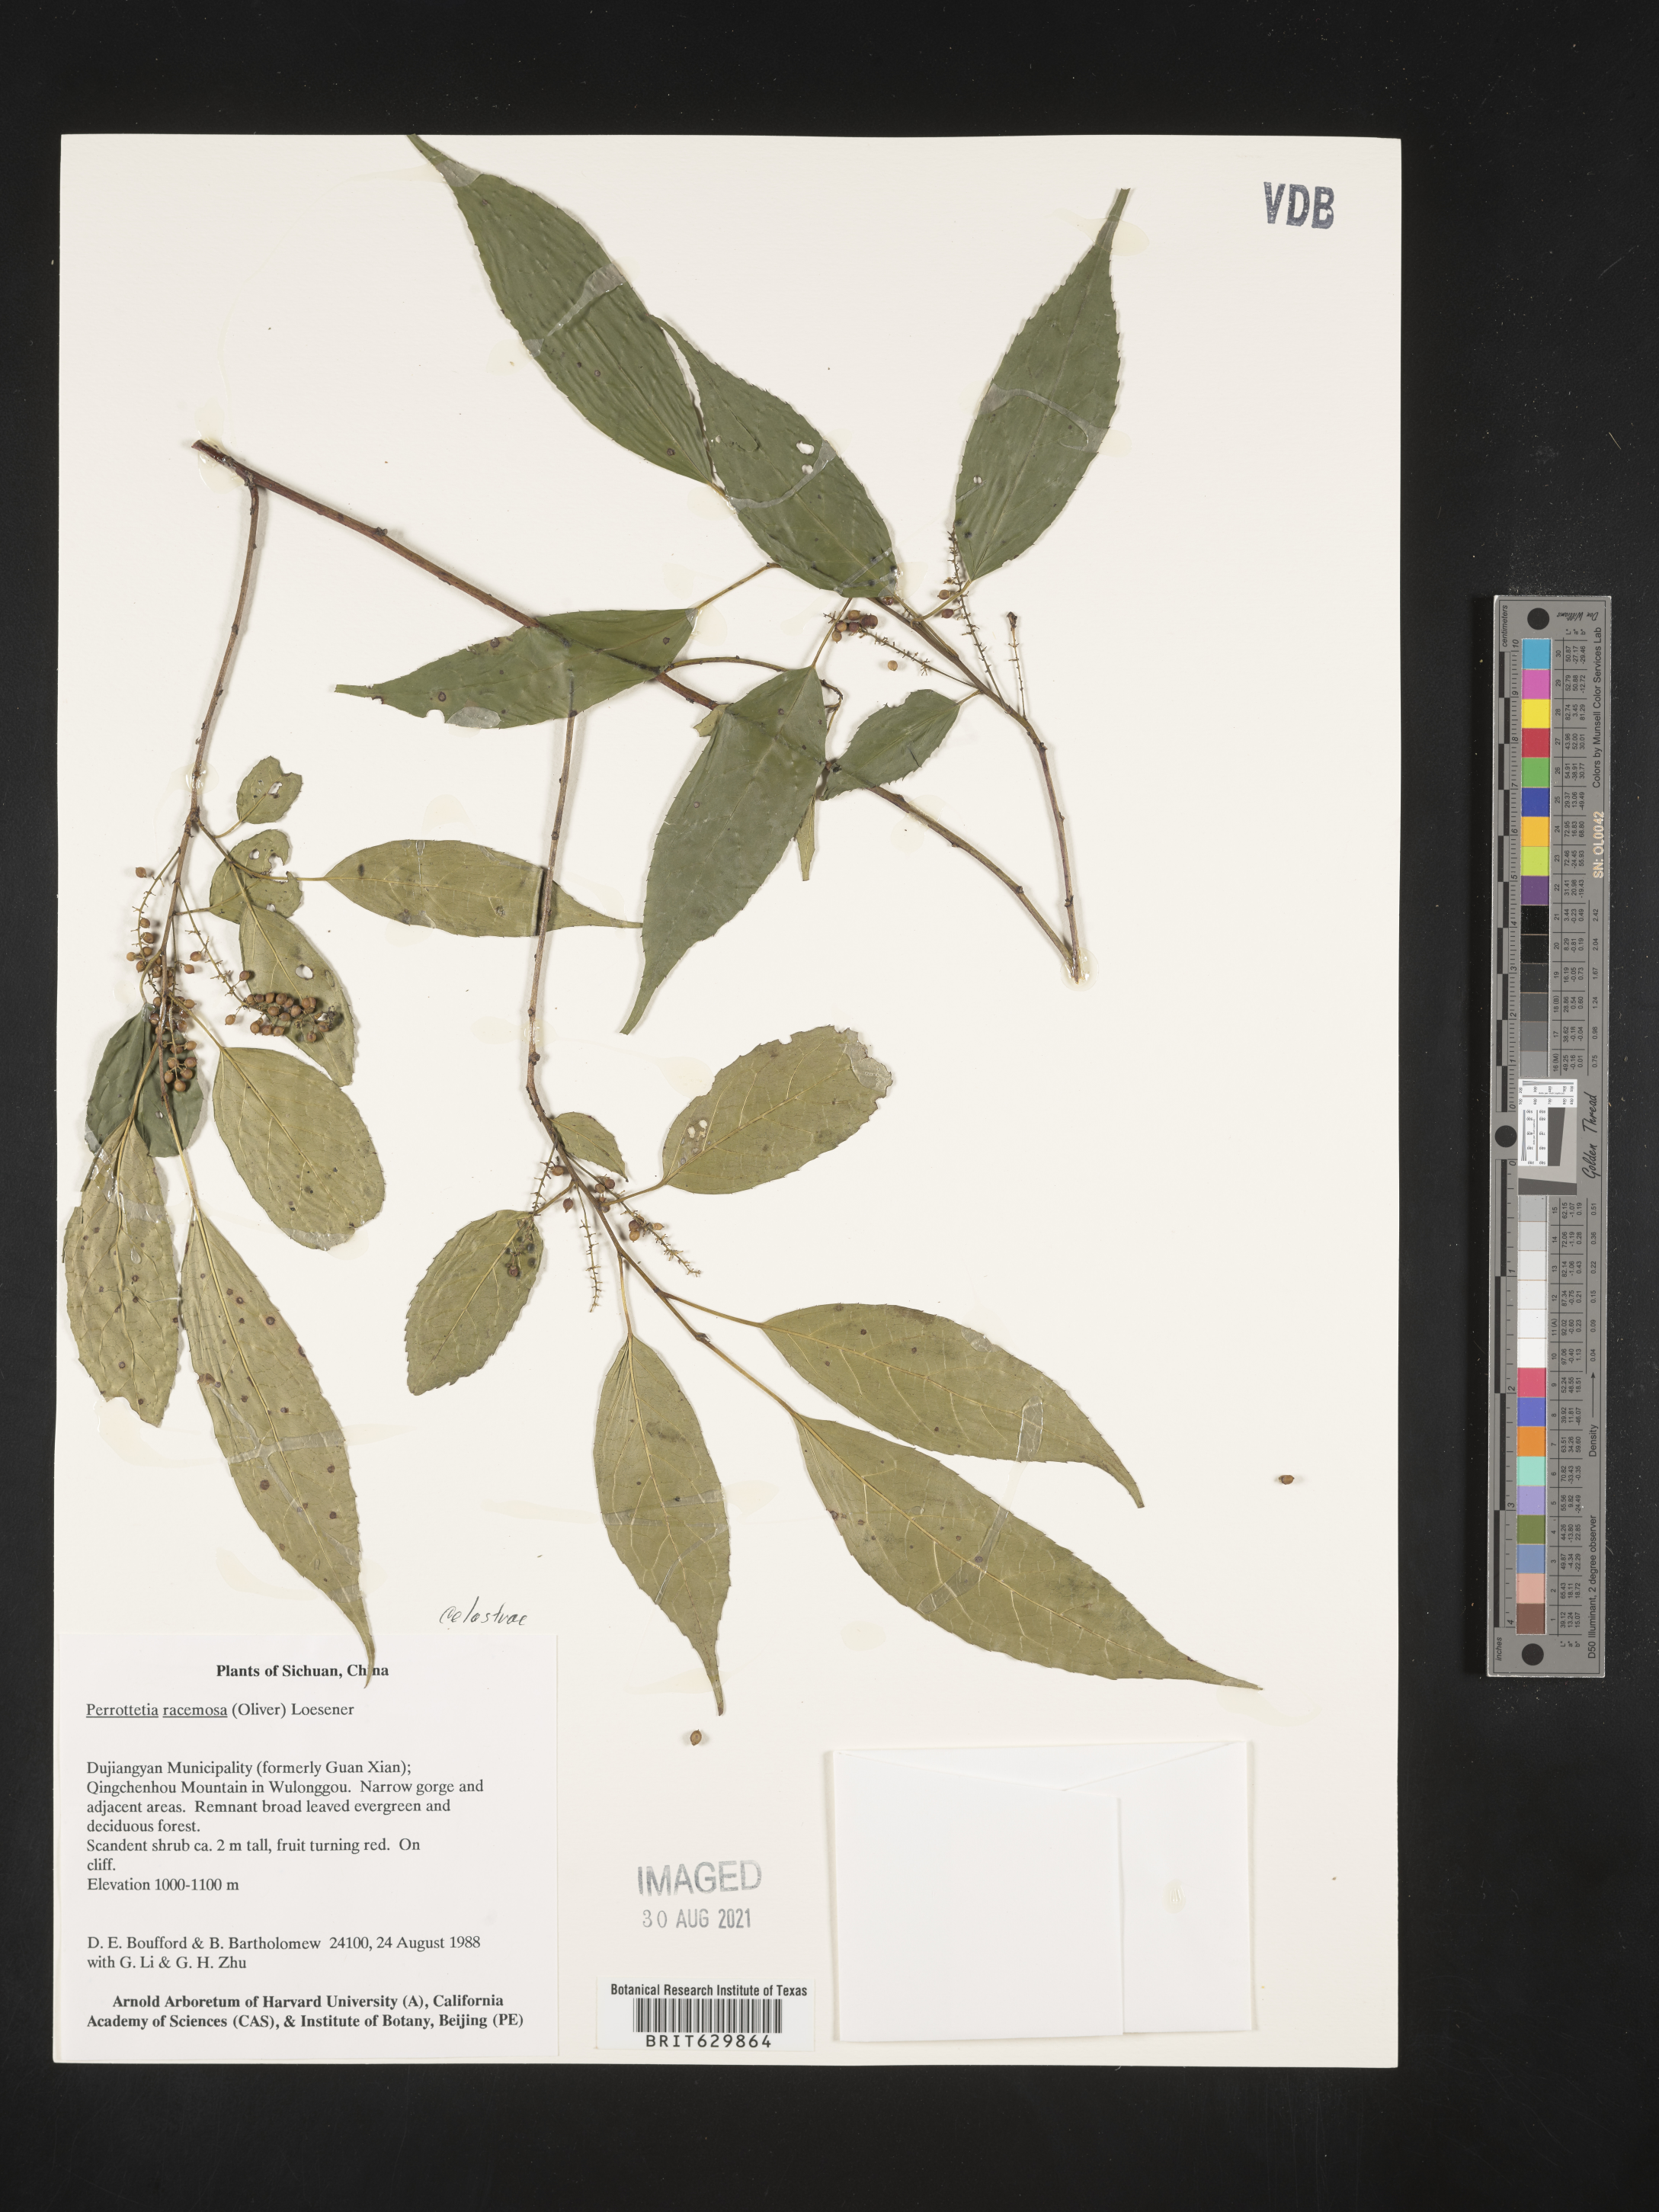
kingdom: Plantae
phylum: Tracheophyta
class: Magnoliopsida
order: Huerteales
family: Dipentodontaceae
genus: Perrottetia
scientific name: Perrottetia
